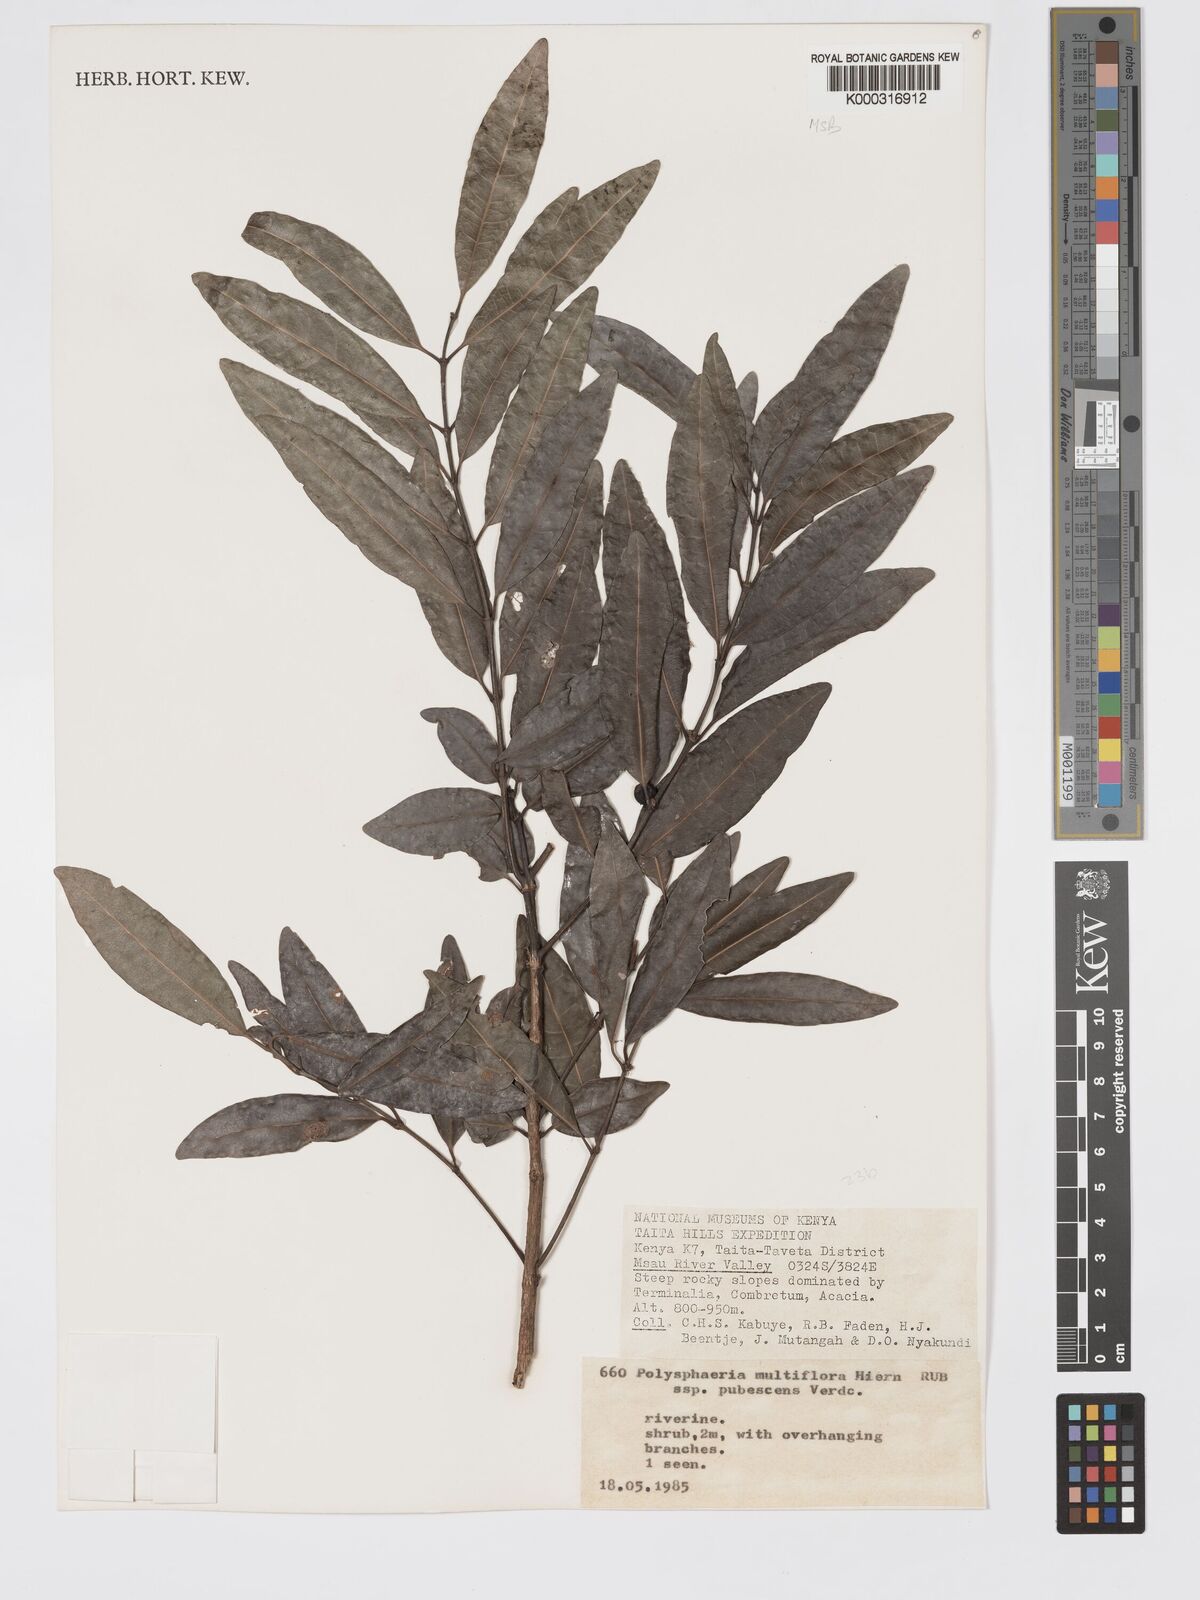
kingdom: Plantae
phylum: Tracheophyta
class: Magnoliopsida
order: Gentianales
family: Rubiaceae
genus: Polysphaeria
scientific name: Polysphaeria multiflora
